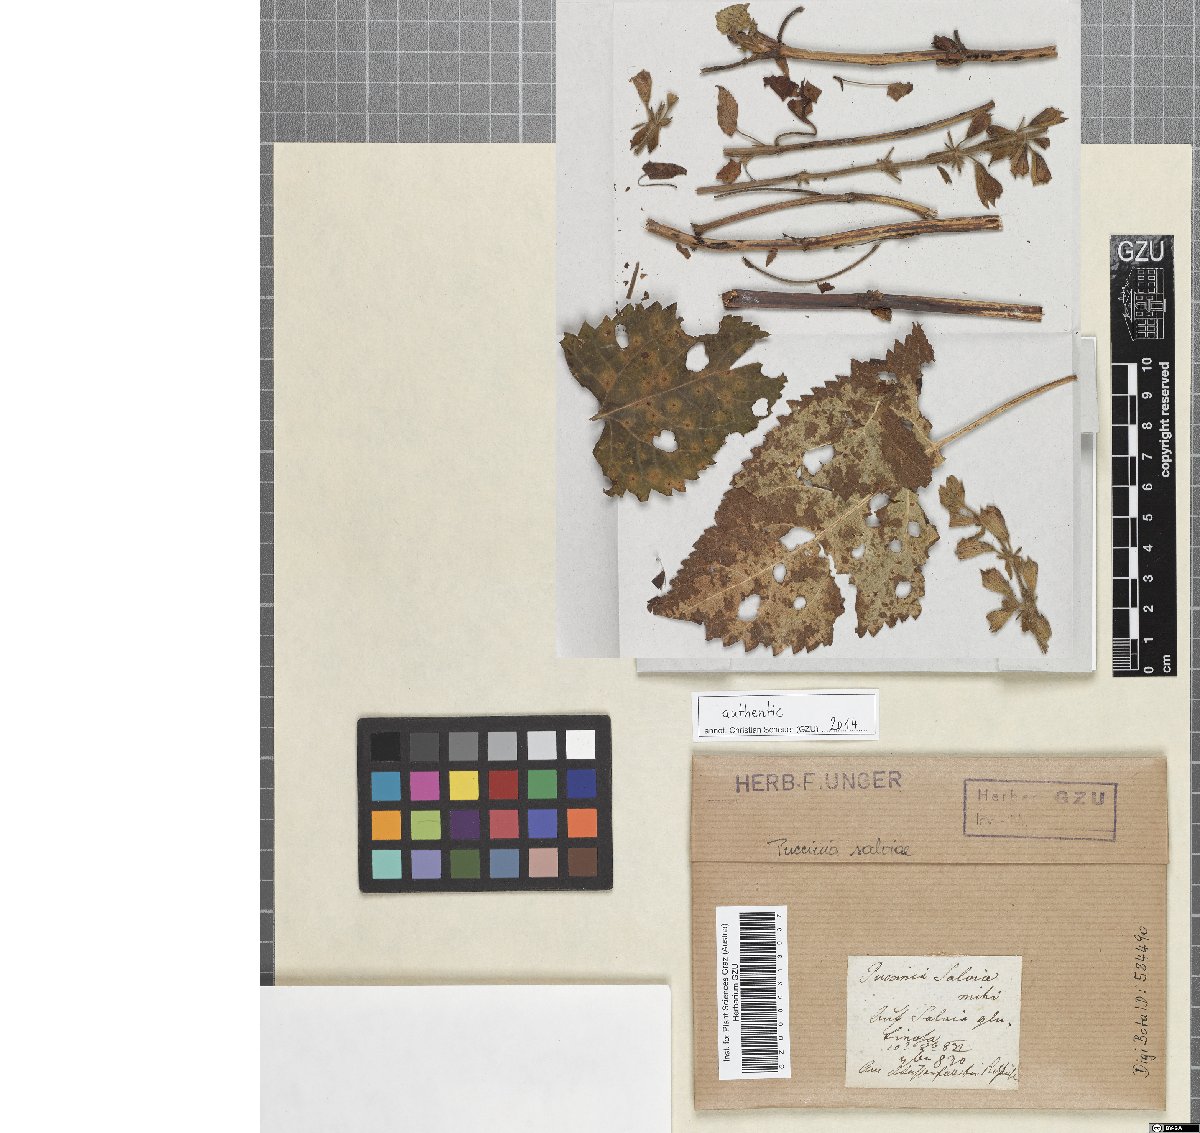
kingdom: Fungi
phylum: Basidiomycota
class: Pucciniomycetes
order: Pucciniales
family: Pucciniaceae
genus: Puccinia
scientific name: Puccinia salviae
